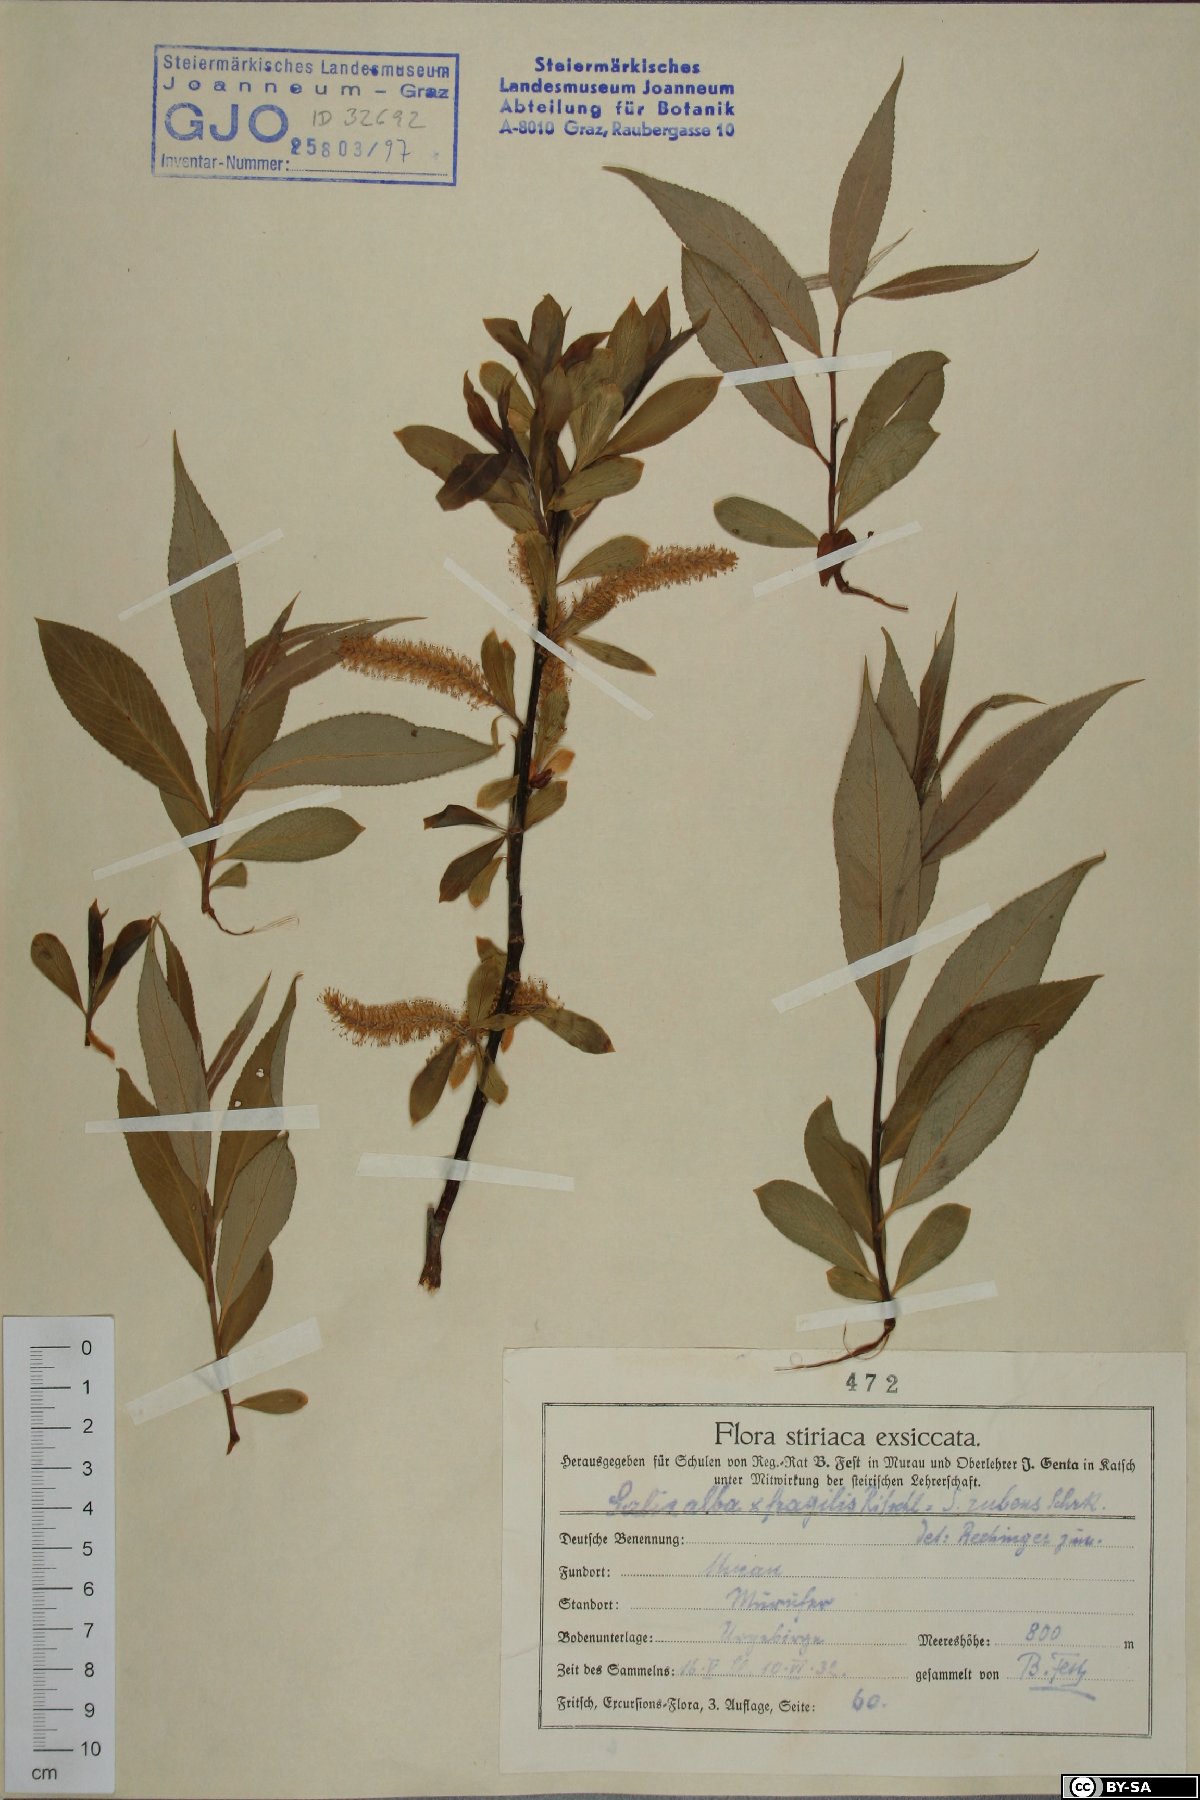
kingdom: Plantae
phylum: Tracheophyta
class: Magnoliopsida
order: Malpighiales
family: Salicaceae
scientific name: Salicaceae
